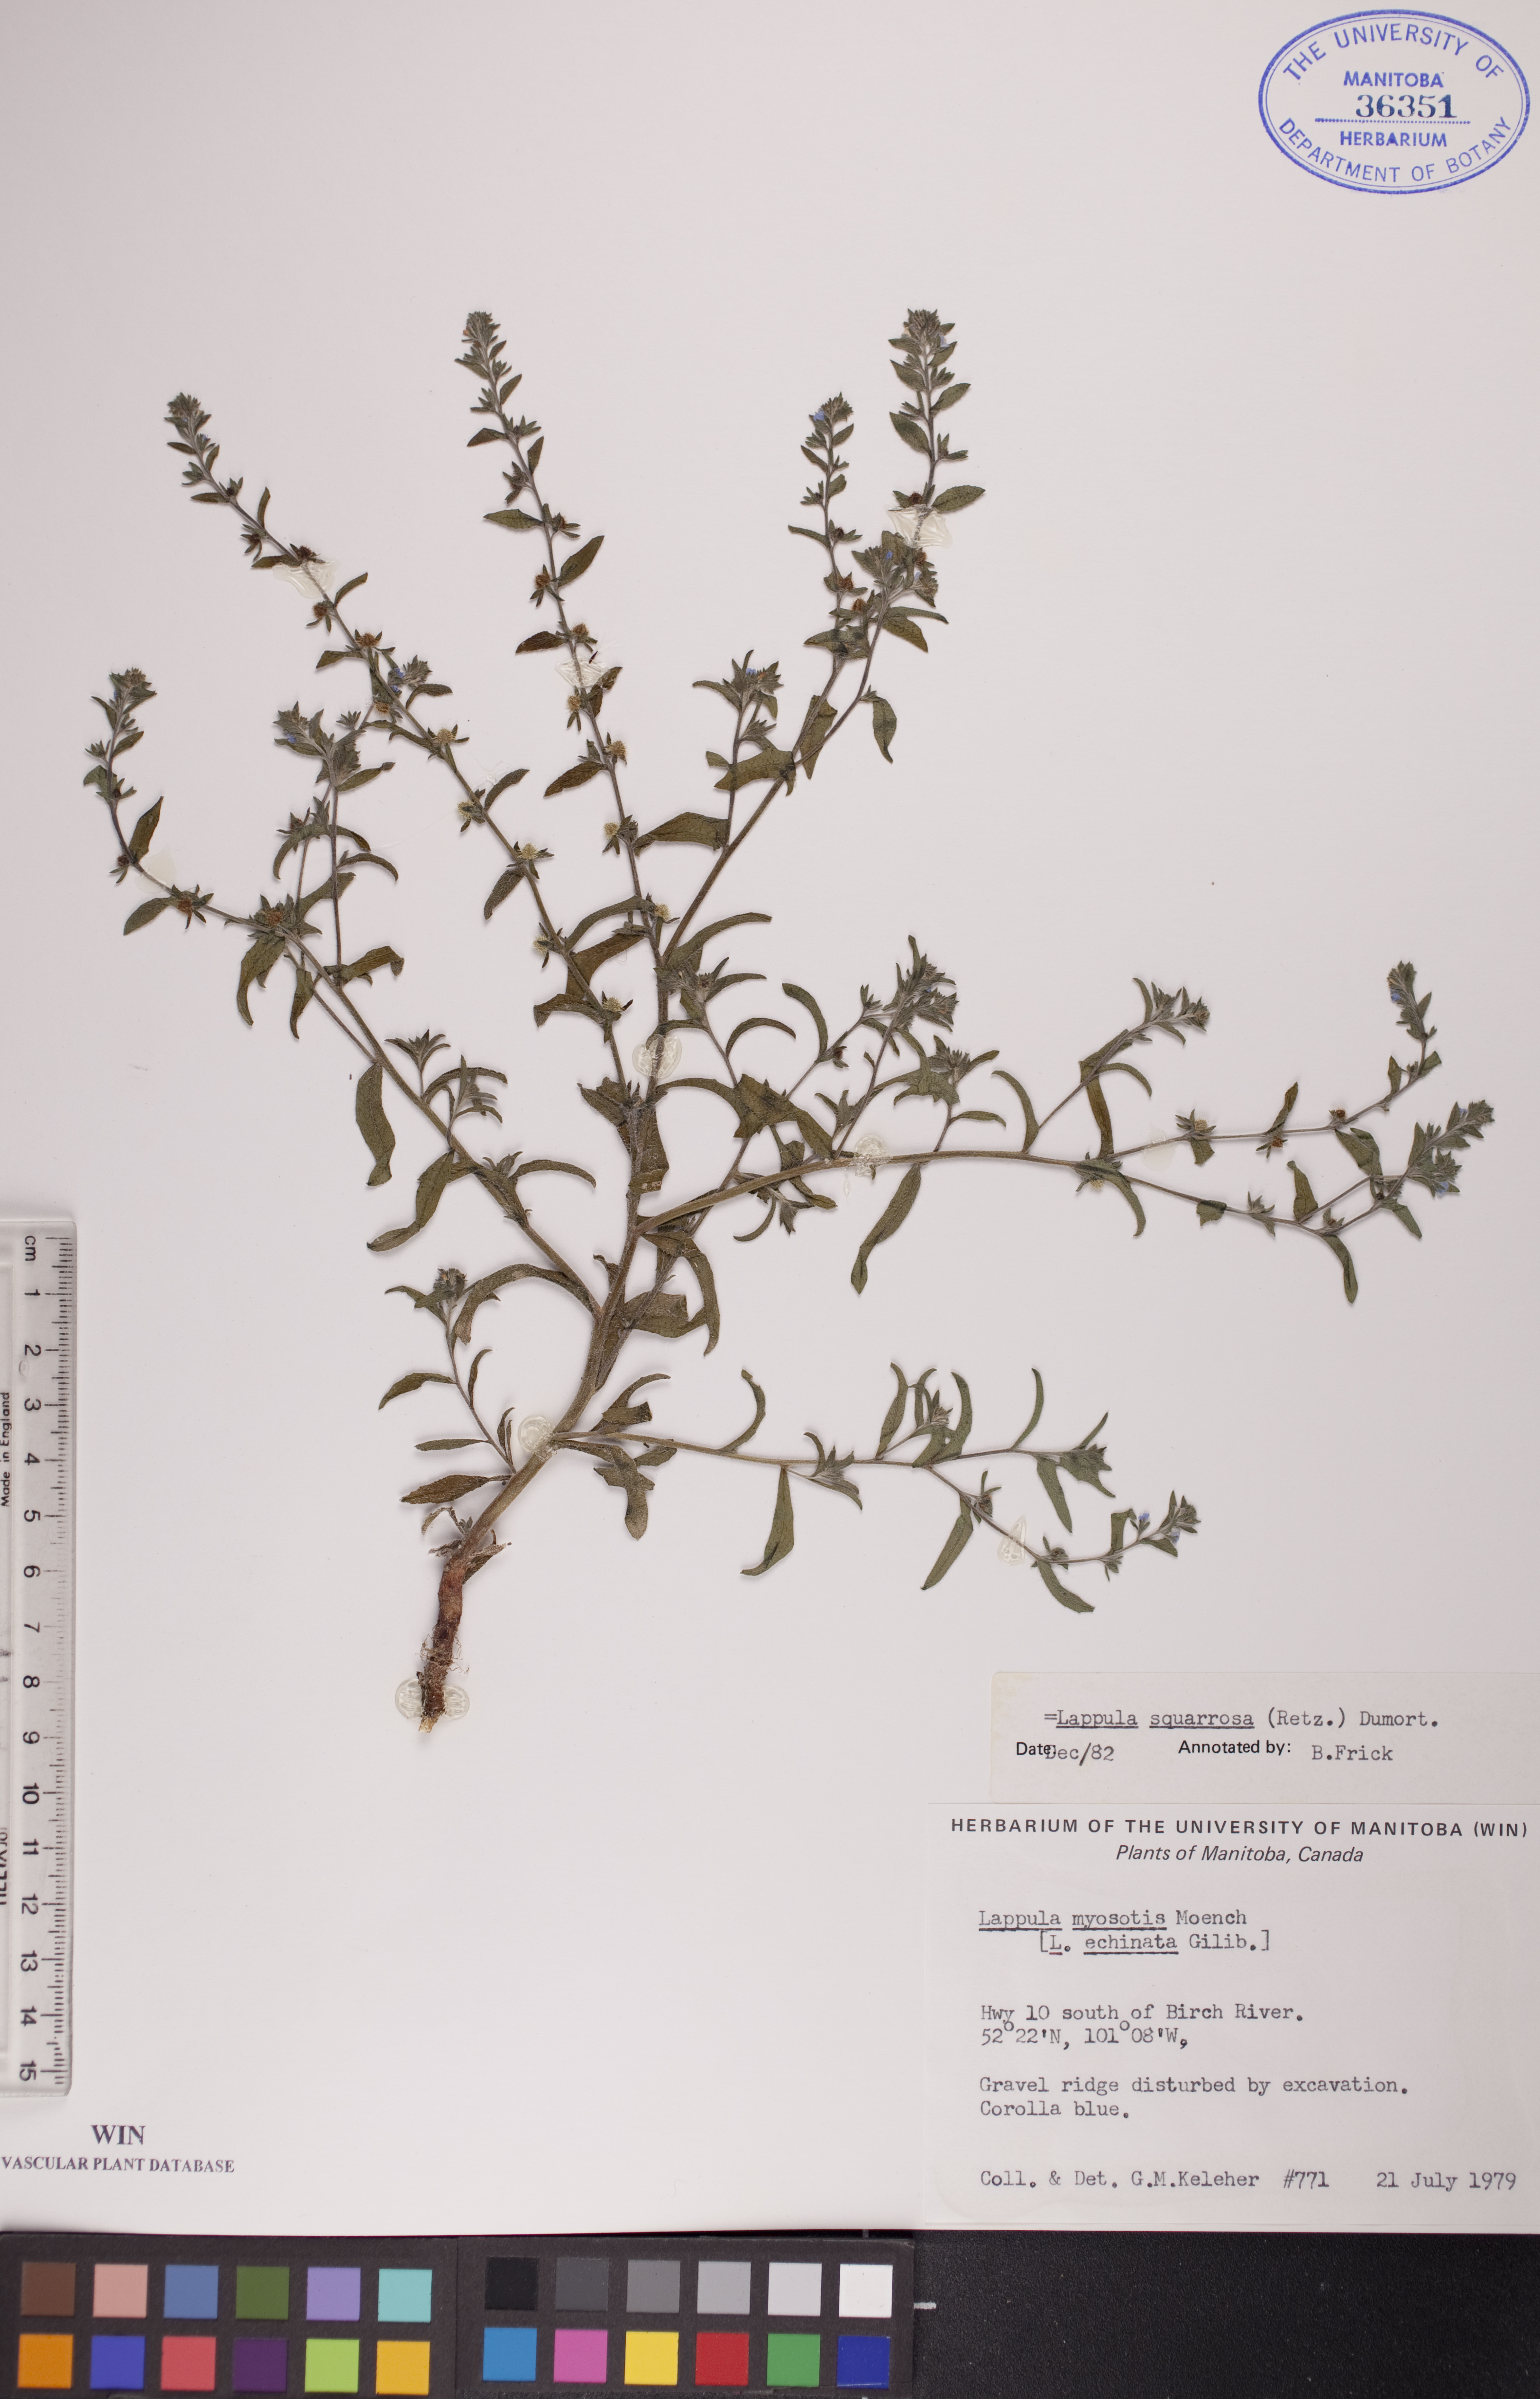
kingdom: Plantae
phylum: Tracheophyta
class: Magnoliopsida
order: Boraginales
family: Boraginaceae
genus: Lappula
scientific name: Lappula squarrosa
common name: European stickseed
